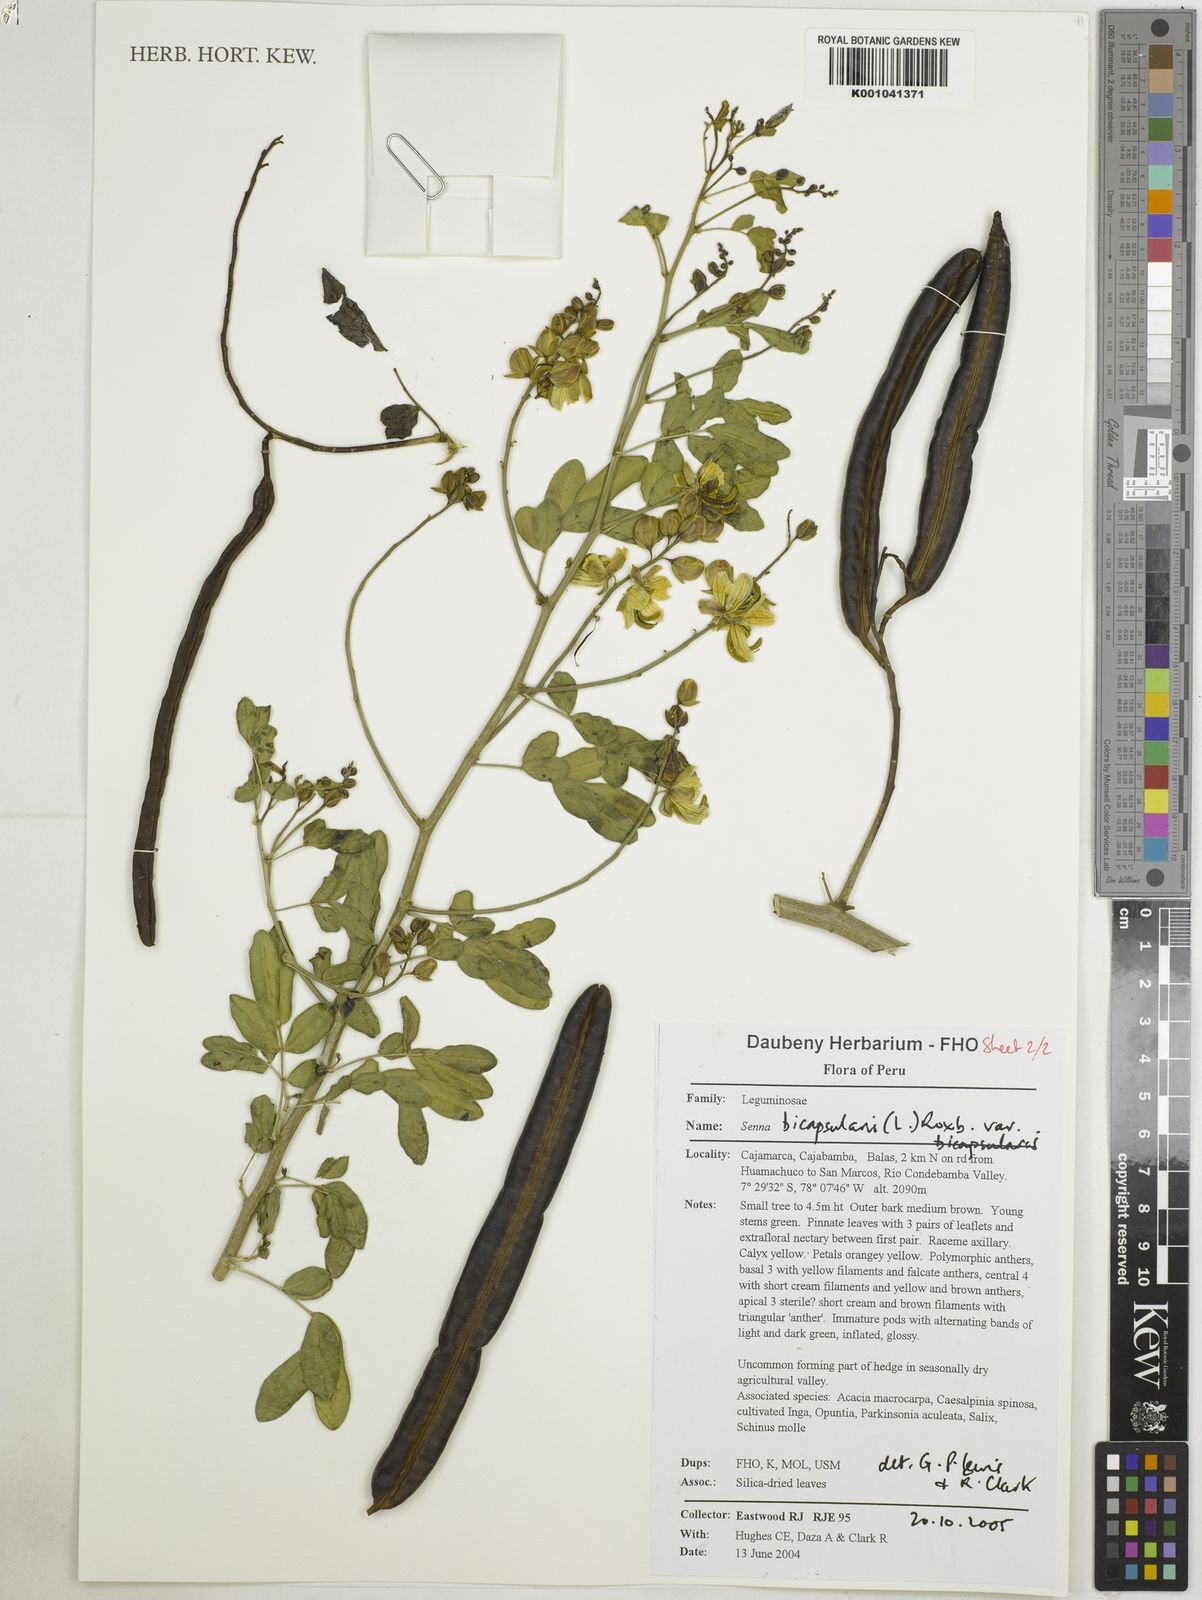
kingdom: Plantae
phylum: Tracheophyta
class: Magnoliopsida
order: Fabales
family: Fabaceae
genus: Senna
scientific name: Senna bicapsularis
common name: Christmasbush
